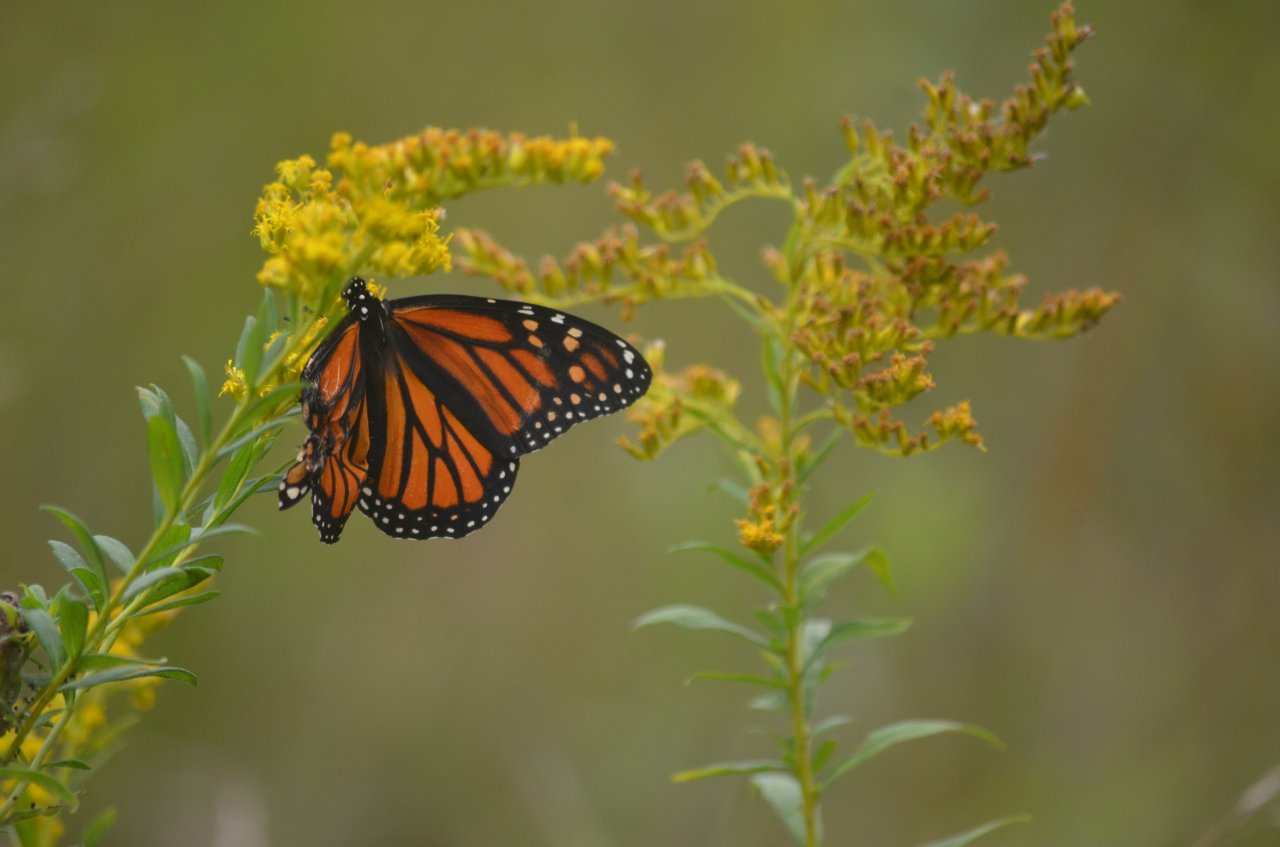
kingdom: Animalia
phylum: Arthropoda
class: Insecta
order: Lepidoptera
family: Nymphalidae
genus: Danaus
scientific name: Danaus plexippus
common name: Monarch
